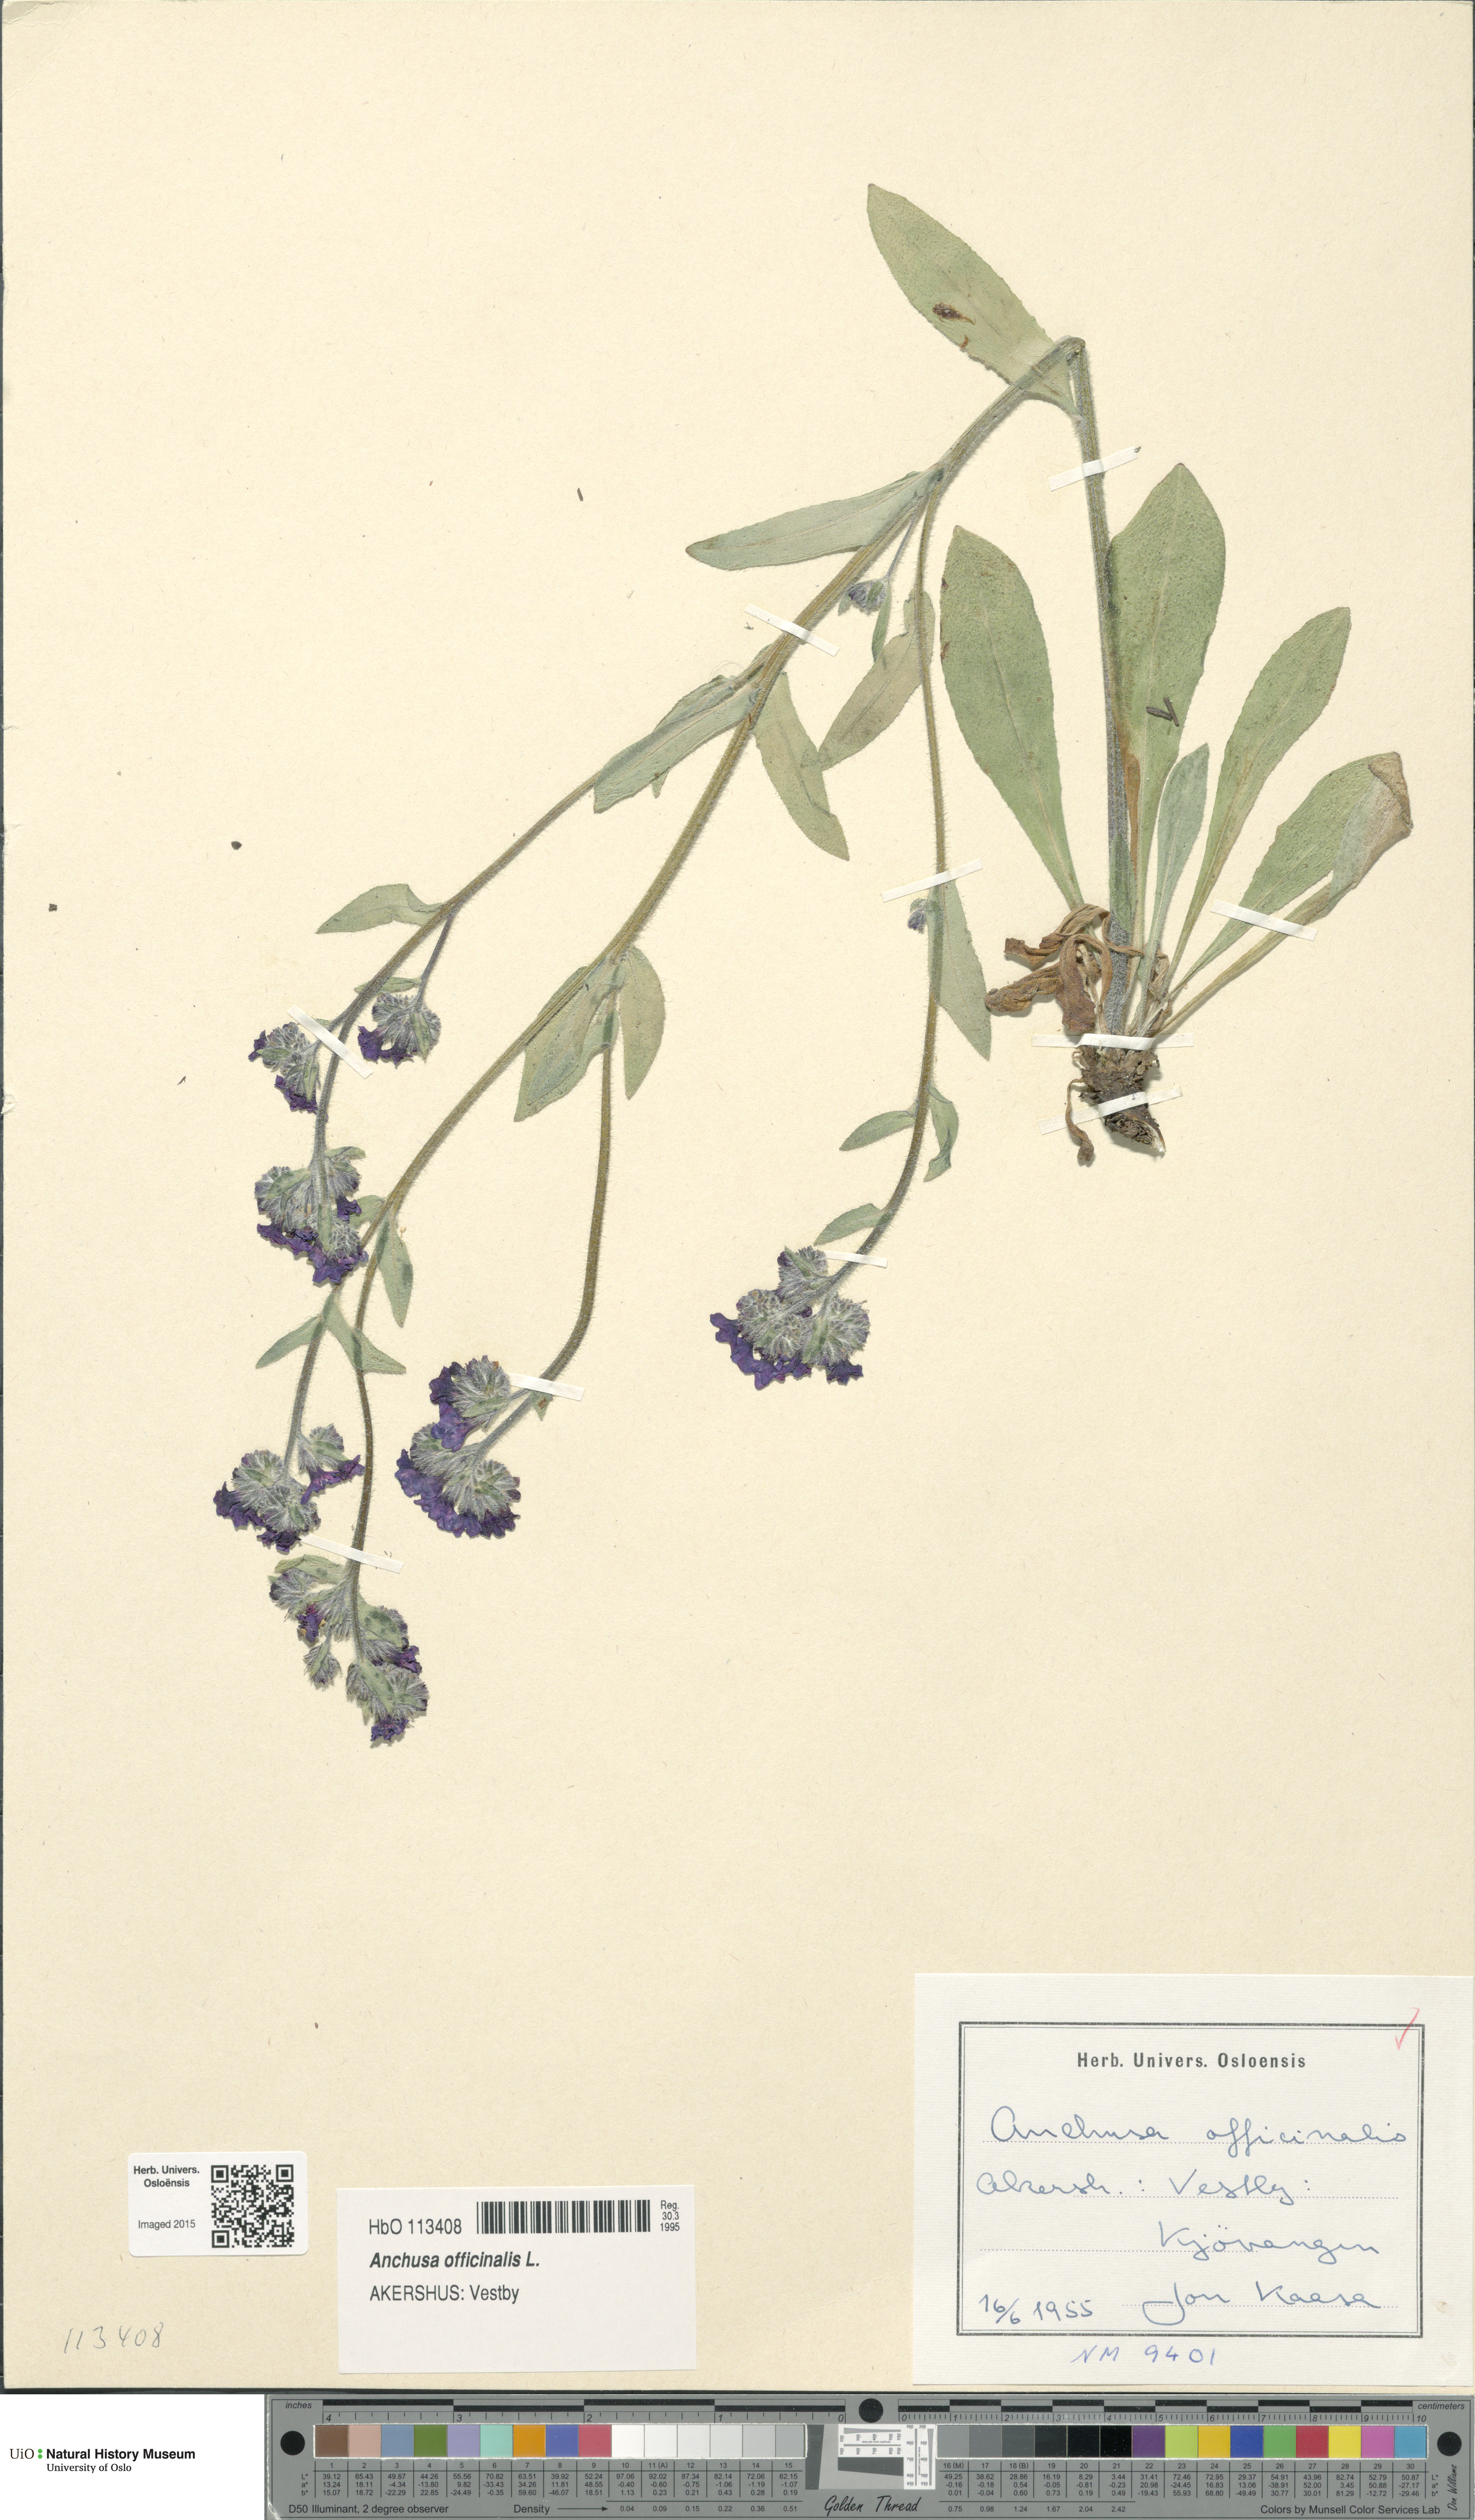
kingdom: Plantae
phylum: Tracheophyta
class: Magnoliopsida
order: Boraginales
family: Boraginaceae
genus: Anchusa
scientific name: Anchusa officinalis
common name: Alkanet
